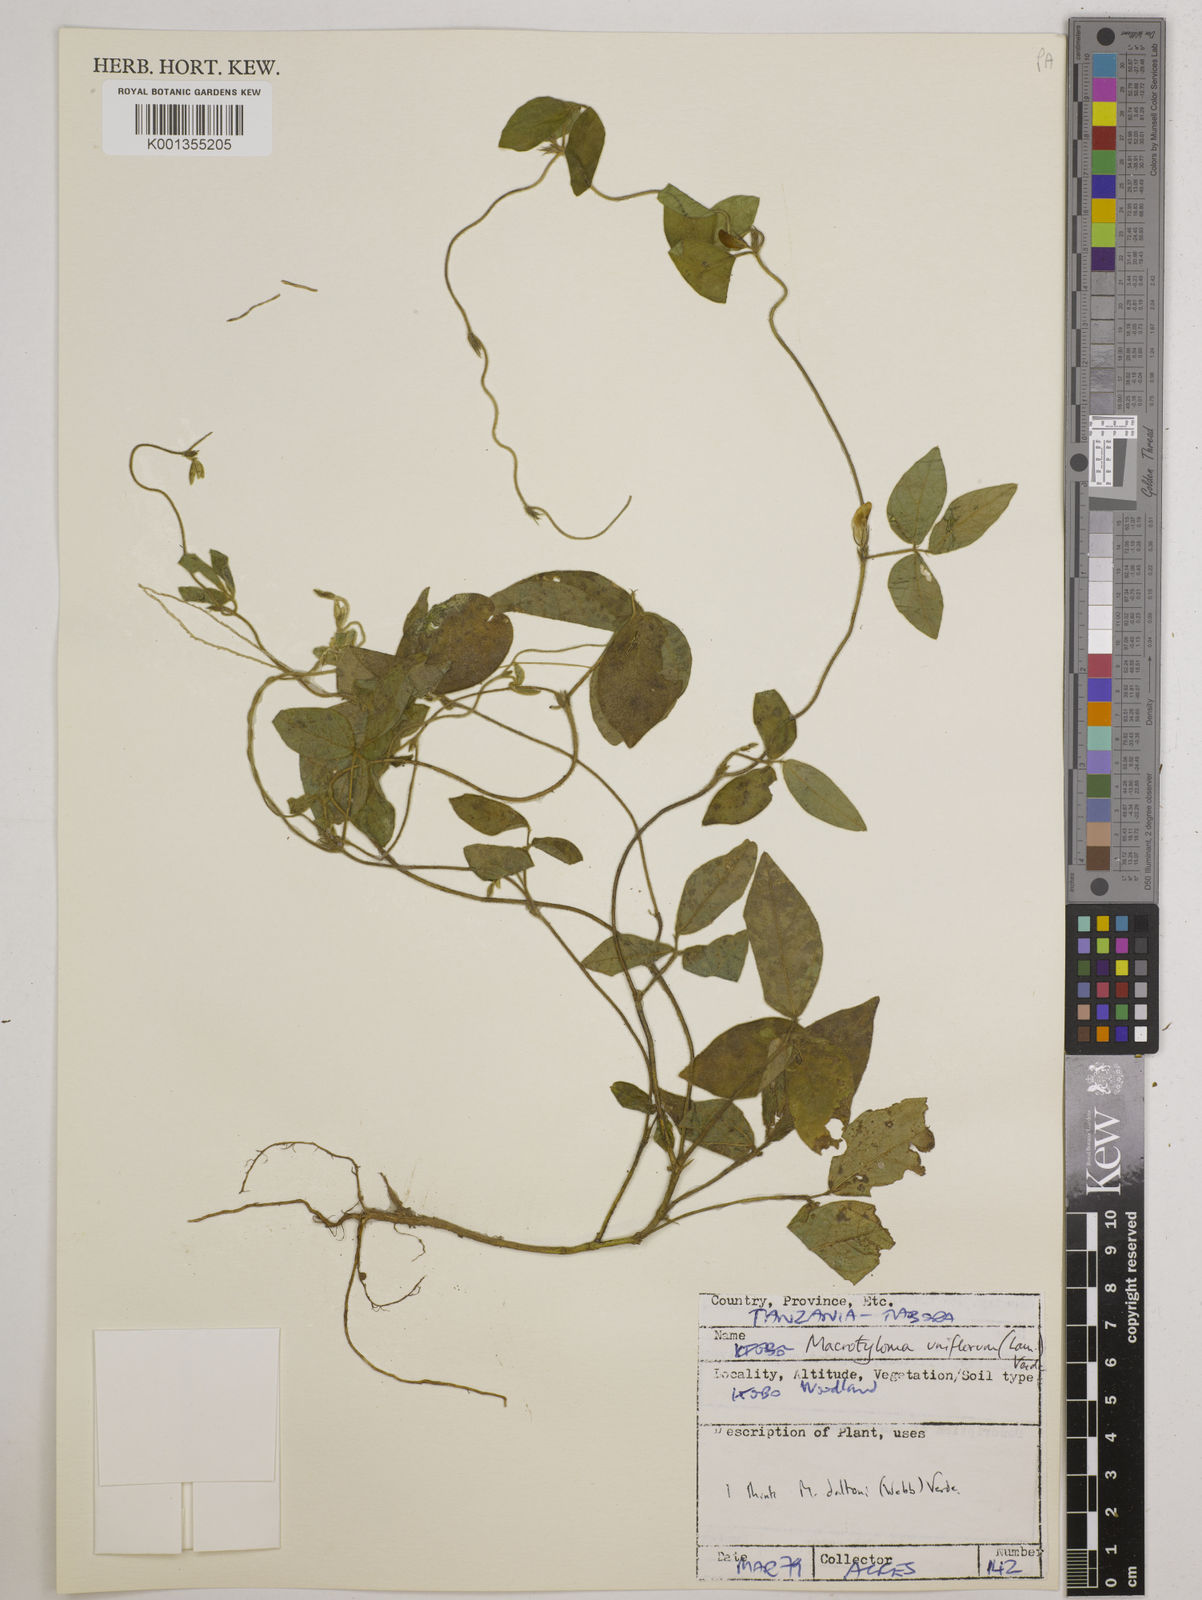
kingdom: Plantae
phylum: Tracheophyta
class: Magnoliopsida
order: Fabales
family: Fabaceae
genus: Macrotyloma
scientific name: Macrotyloma daltonii
